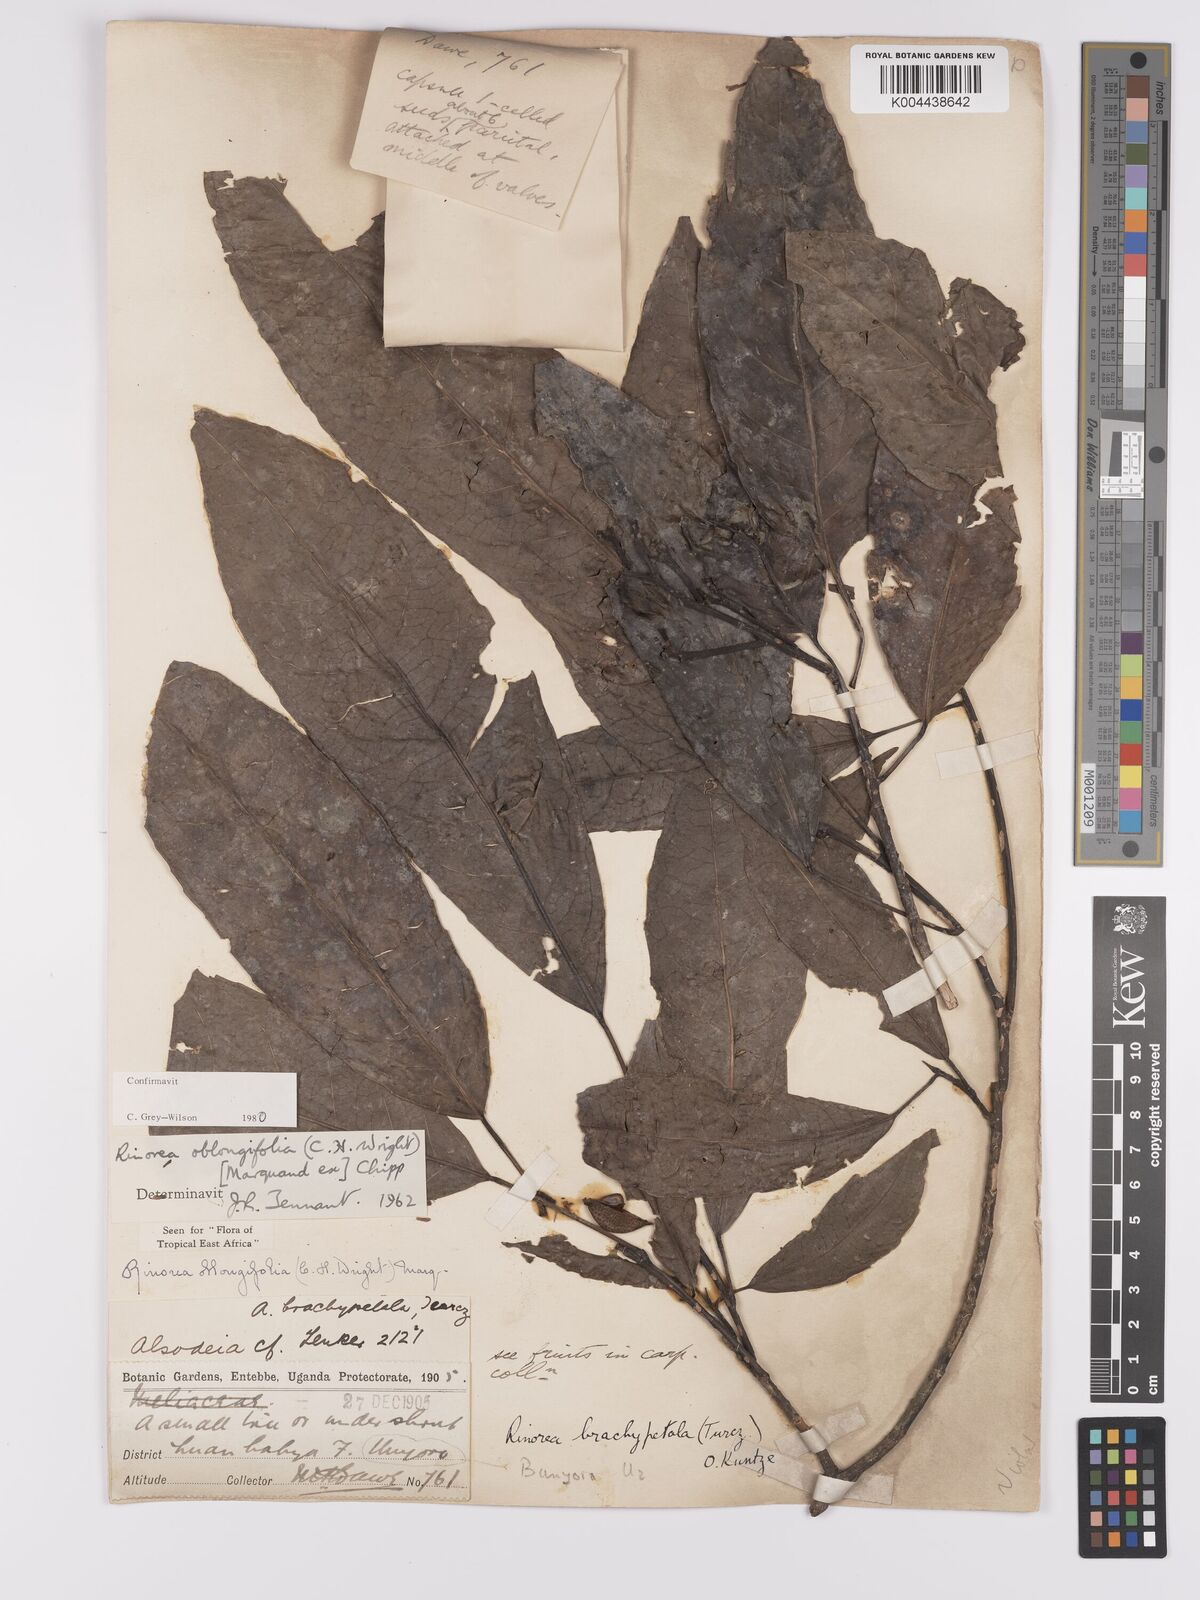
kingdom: Plantae
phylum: Tracheophyta
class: Magnoliopsida
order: Apiales
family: Pittosporaceae
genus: Marianthus
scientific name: Marianthus coeruleopunctatus
